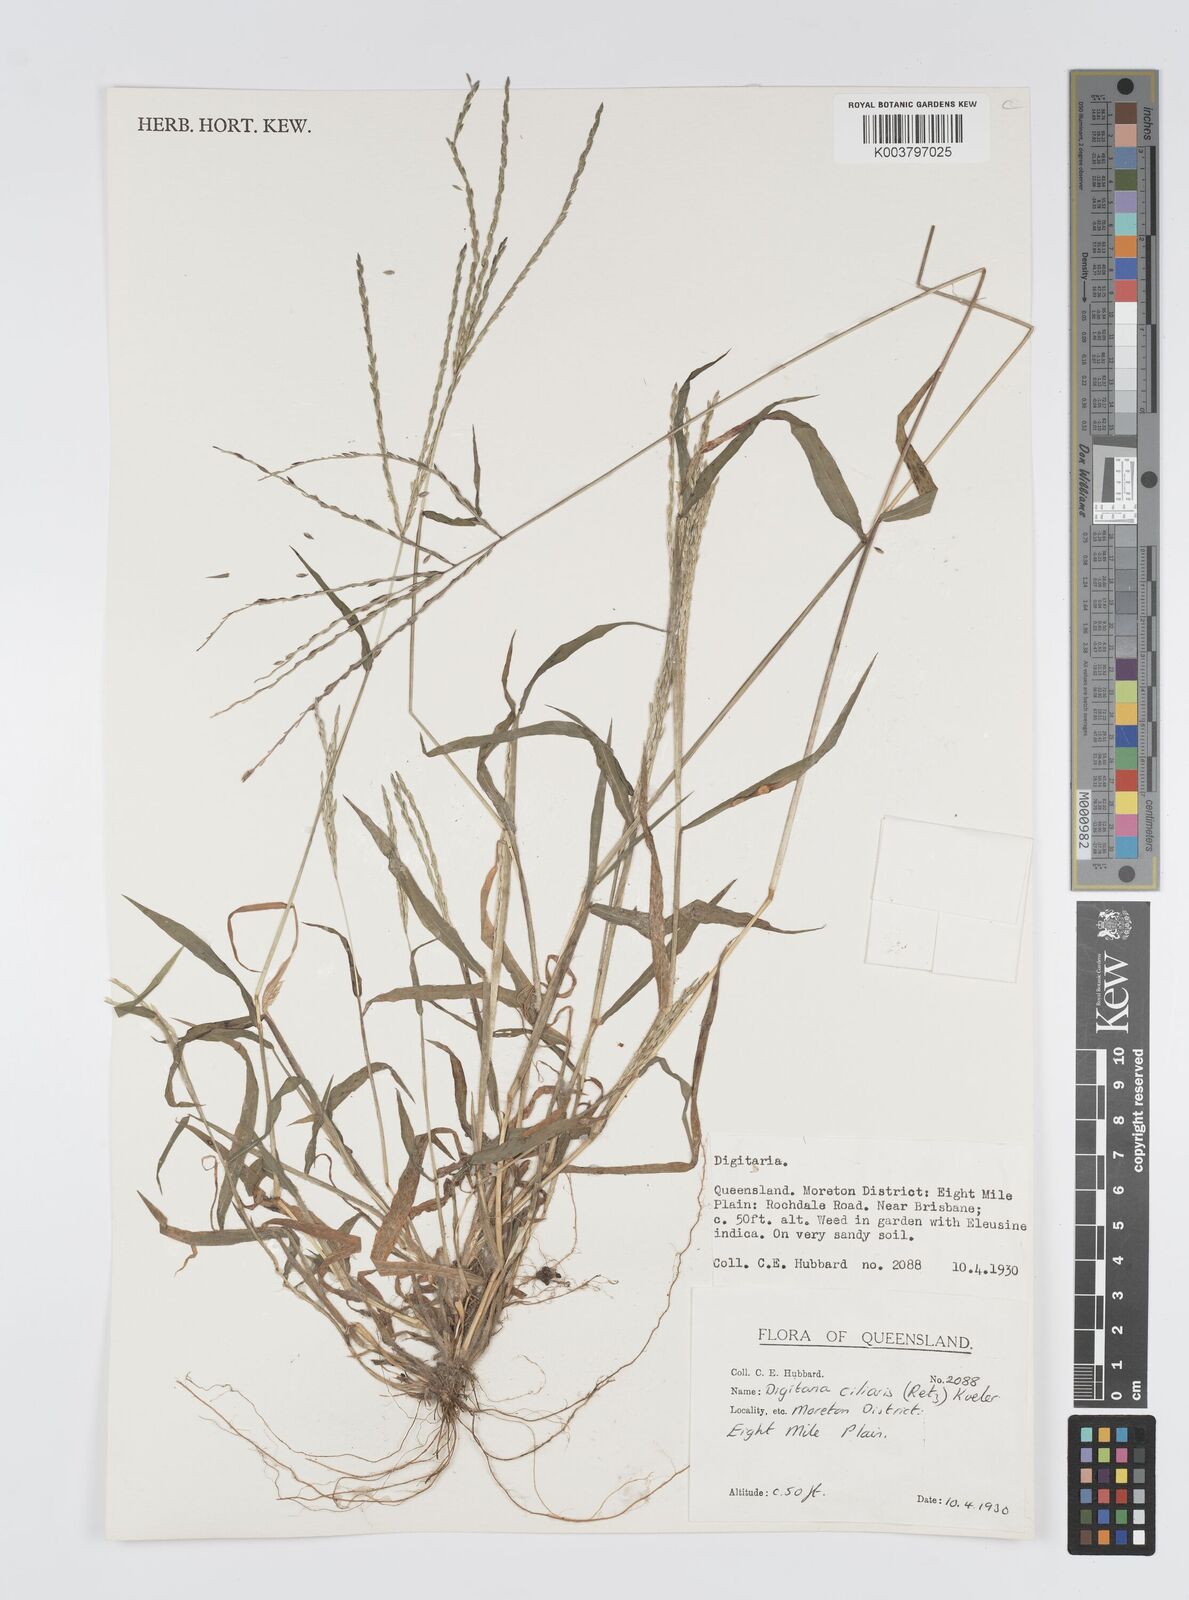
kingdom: Plantae
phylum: Tracheophyta
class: Liliopsida
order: Poales
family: Poaceae
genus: Digitaria
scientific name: Digitaria ciliaris
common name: Tropical finger-grass
